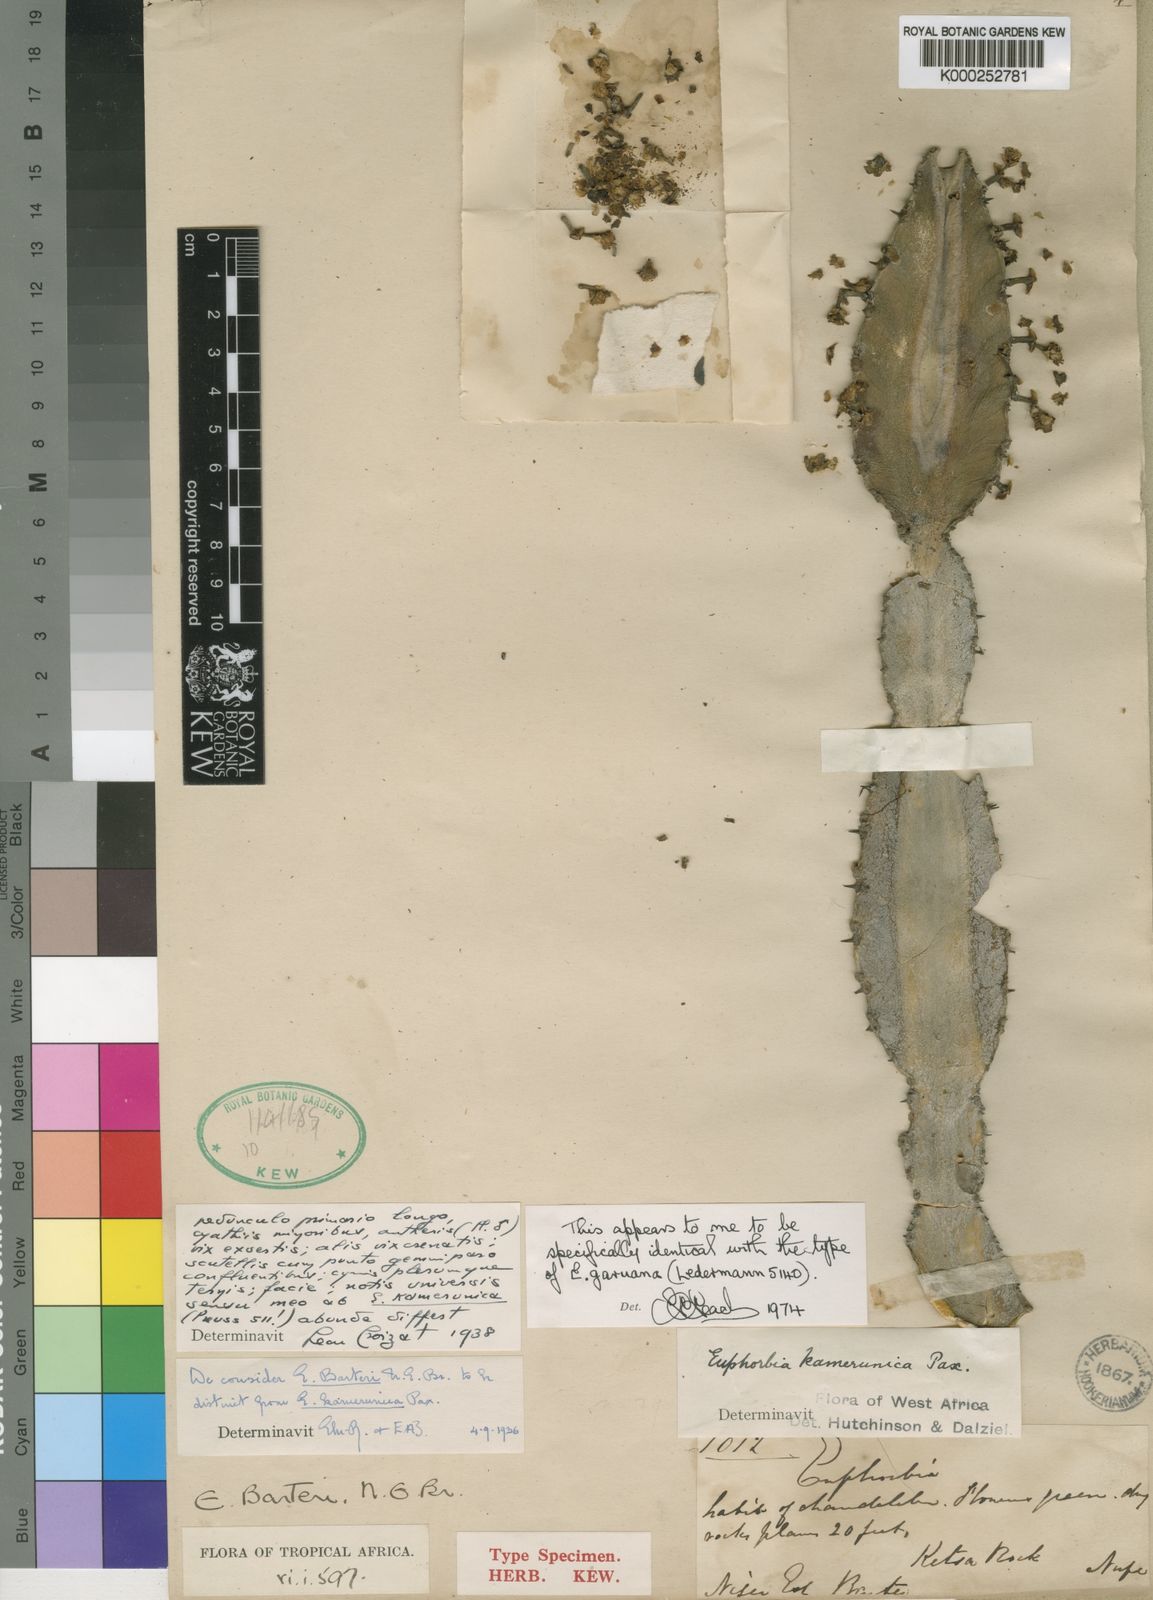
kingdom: Plantae
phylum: Tracheophyta
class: Magnoliopsida
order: Malpighiales
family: Euphorbiaceae
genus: Euphorbia
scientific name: Euphorbia kamerunica
